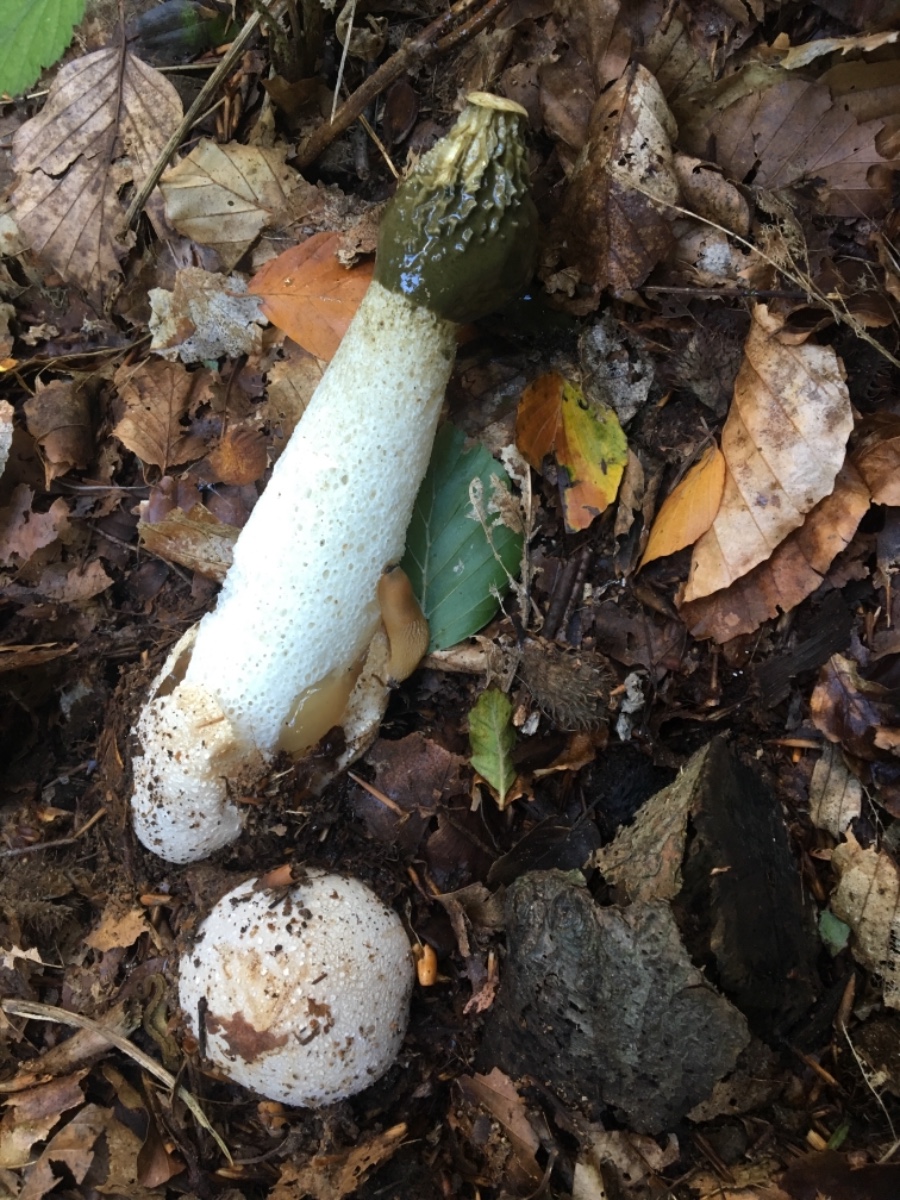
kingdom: Fungi
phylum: Basidiomycota
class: Agaricomycetes
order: Phallales
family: Phallaceae
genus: Phallus
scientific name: Phallus impudicus
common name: almindelig stinksvamp
